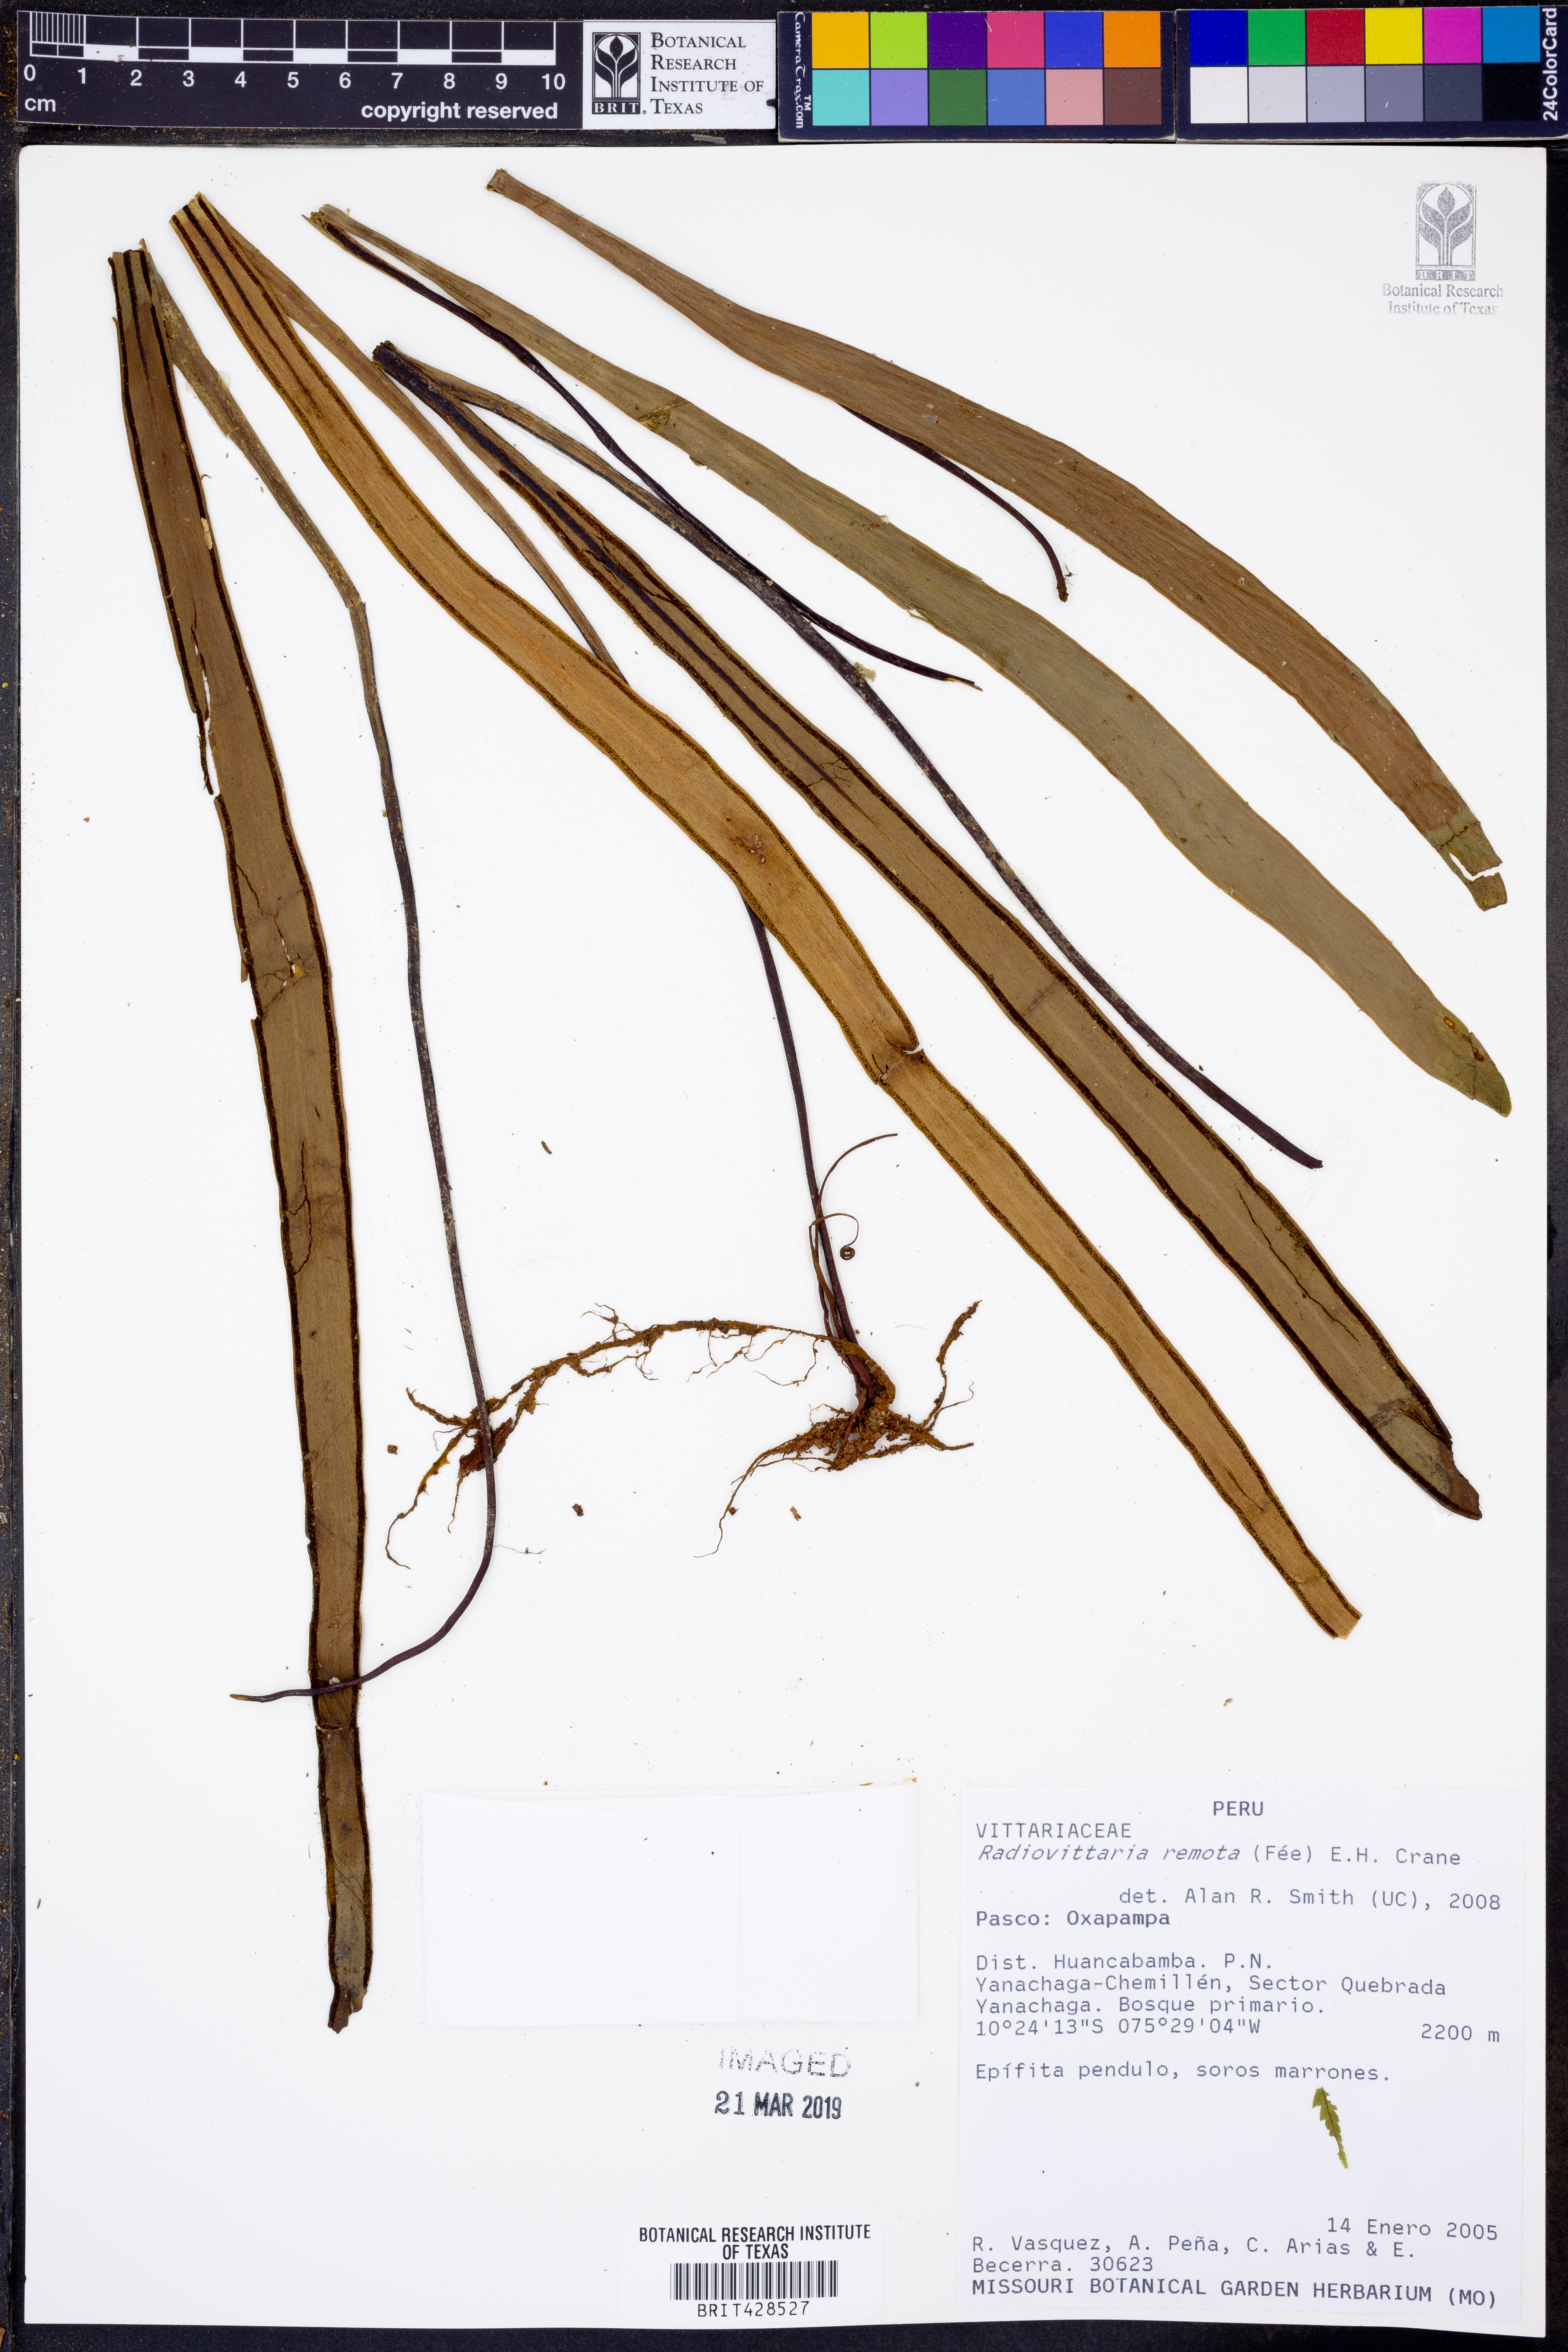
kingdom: Plantae
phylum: Tracheophyta
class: Polypodiopsida
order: Polypodiales
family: Pteridaceae
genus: Radiovittaria
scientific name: Radiovittaria remota
